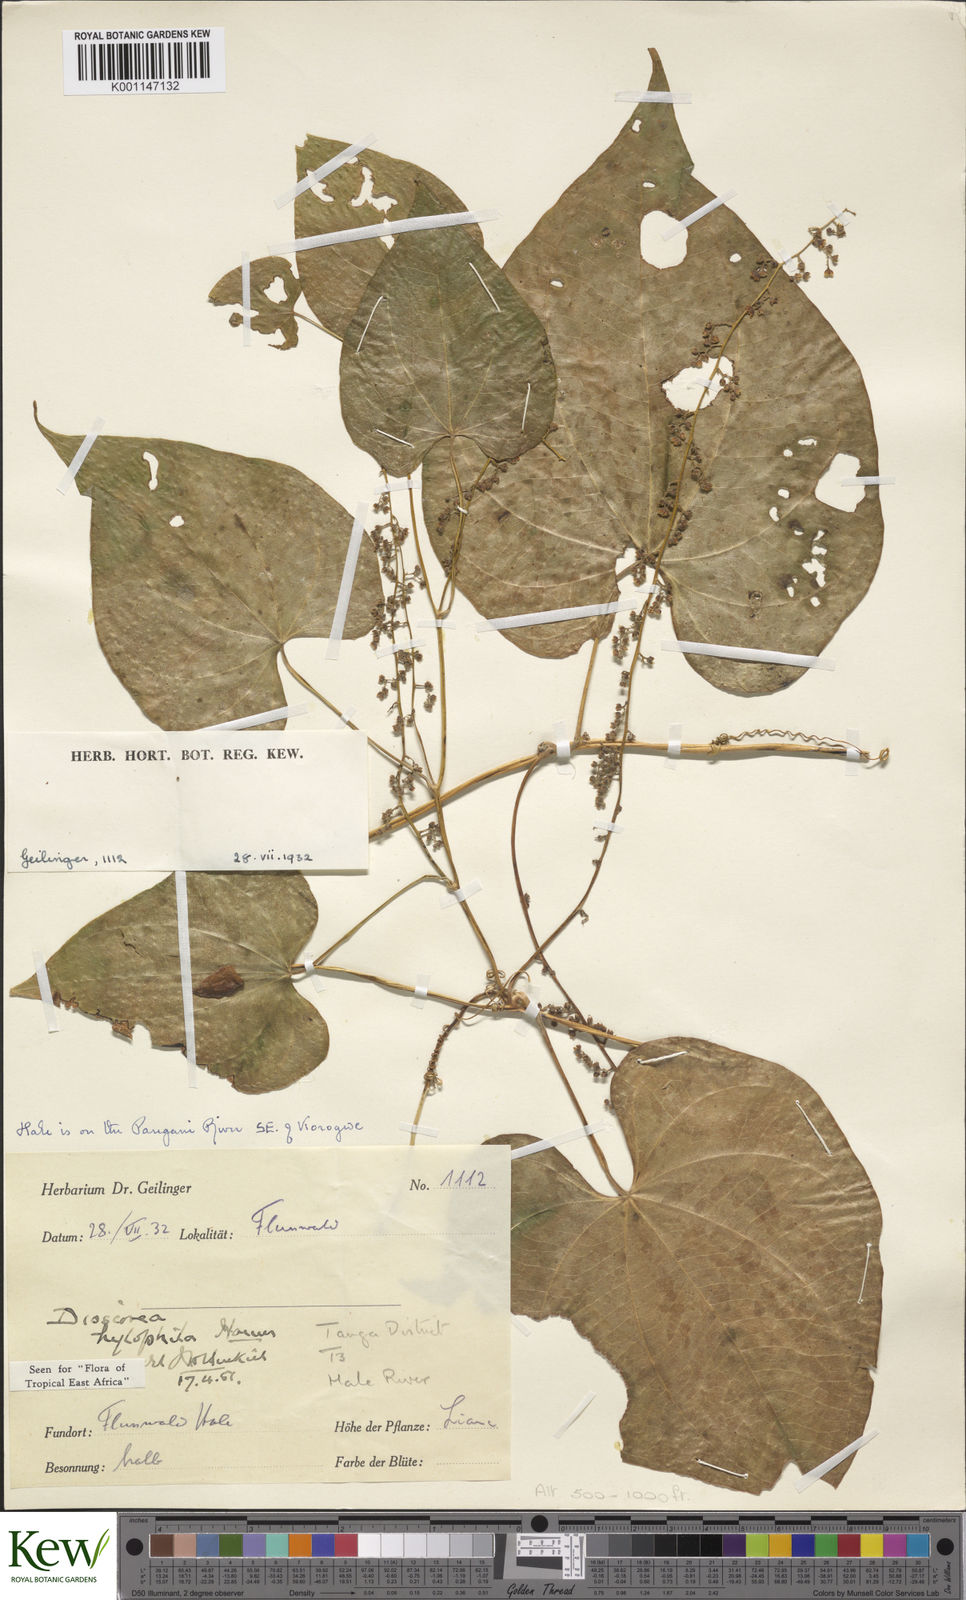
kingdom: Plantae
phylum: Tracheophyta
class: Liliopsida
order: Dioscoreales
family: Dioscoreaceae
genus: Dioscorea
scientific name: Dioscorea
